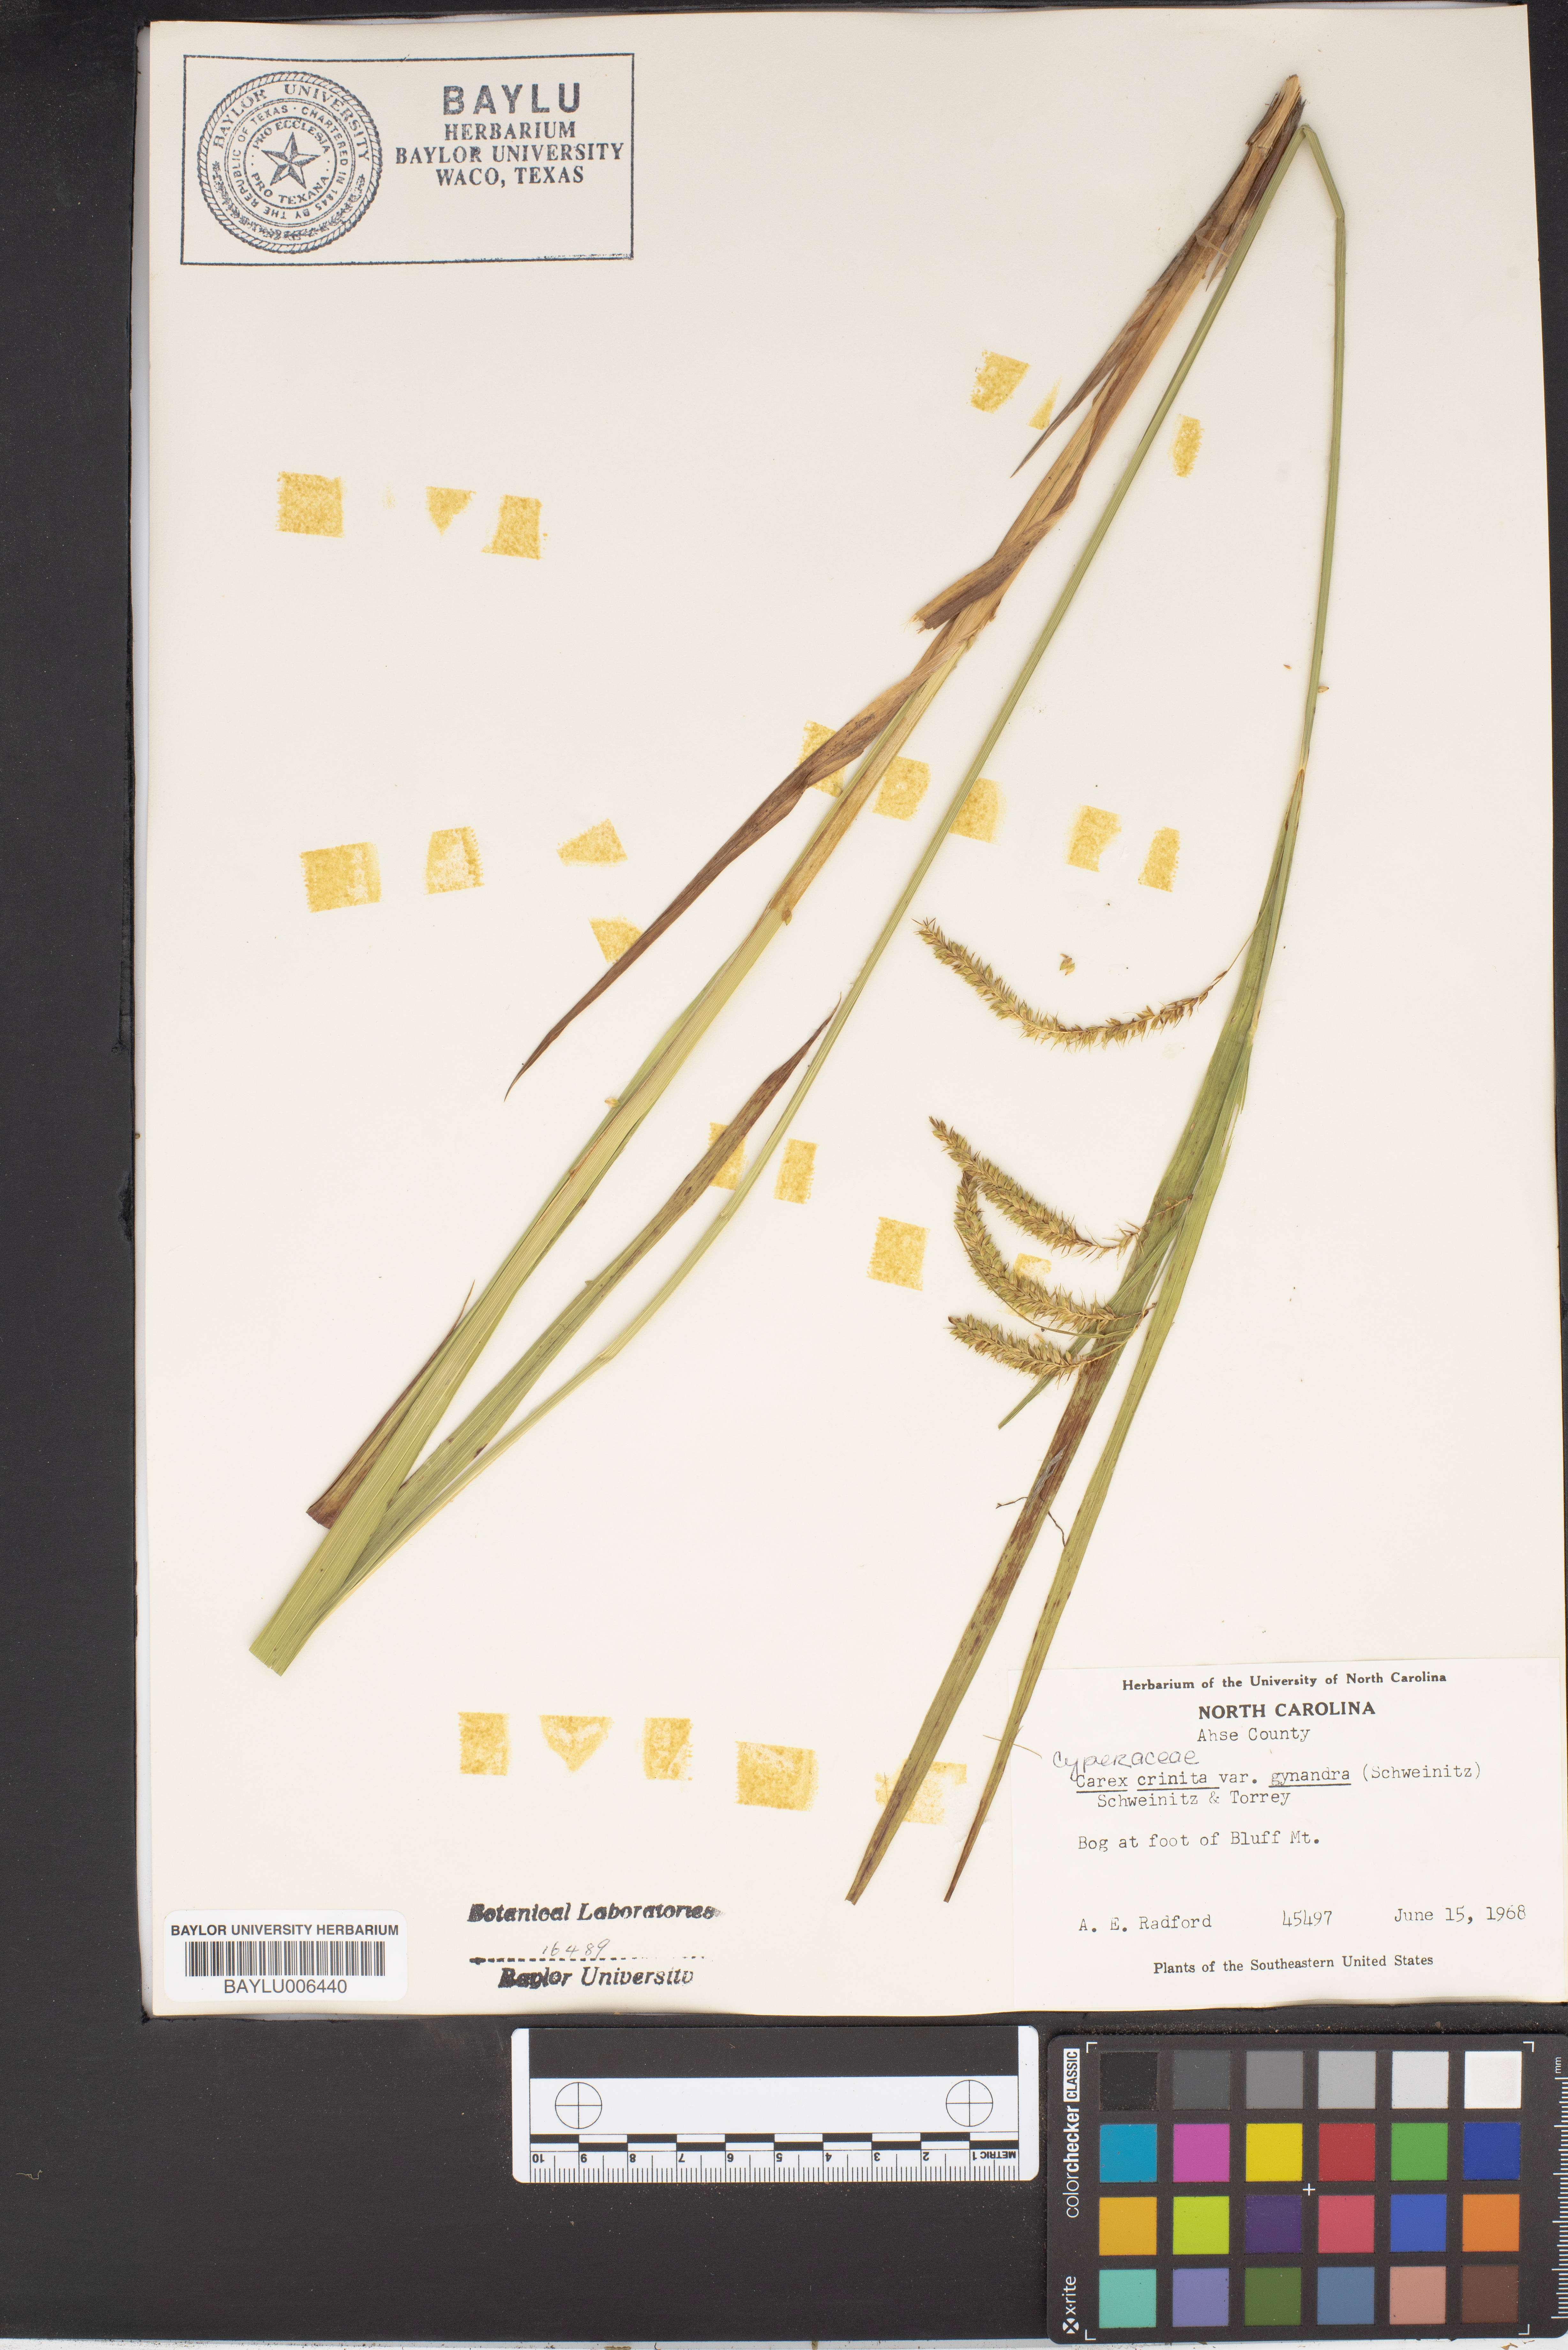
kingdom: Plantae
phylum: Tracheophyta
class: Liliopsida
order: Poales
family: Cyperaceae
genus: Carex
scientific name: Carex gynandra
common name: Nodding sedge
